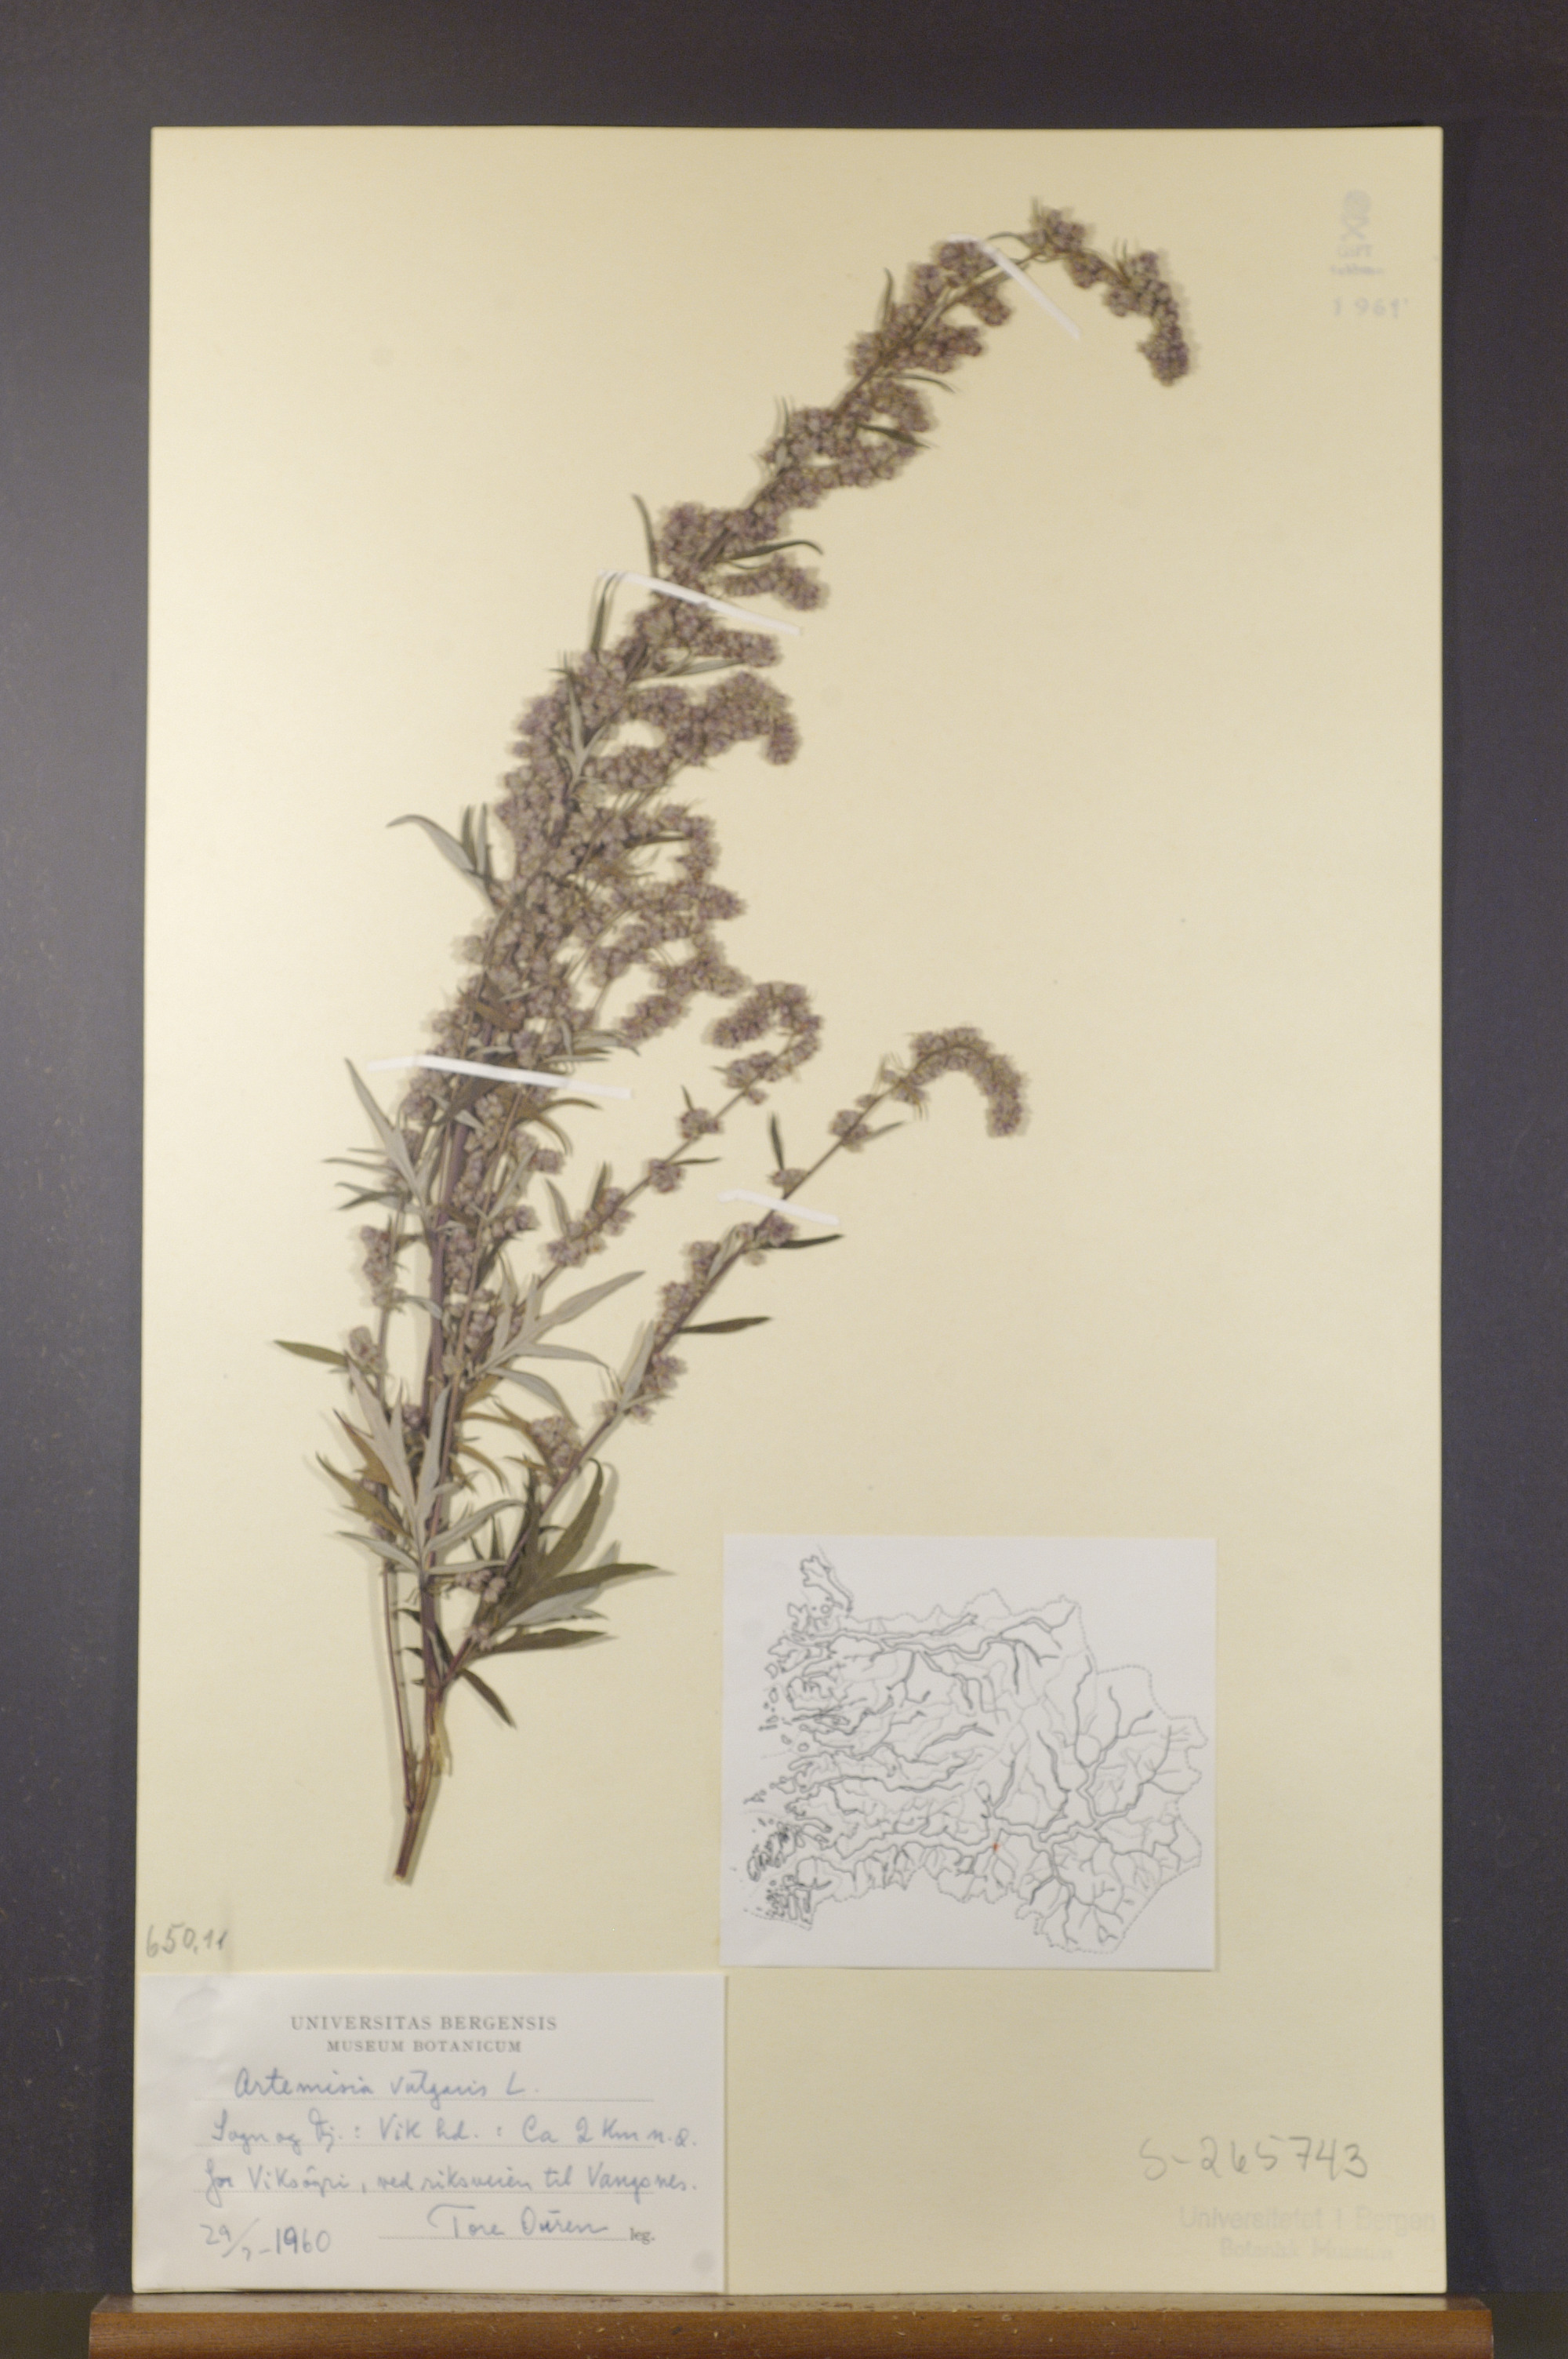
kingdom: Plantae
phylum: Tracheophyta
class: Magnoliopsida
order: Asterales
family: Asteraceae
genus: Artemisia
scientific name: Artemisia vulgaris
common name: Mugwort
